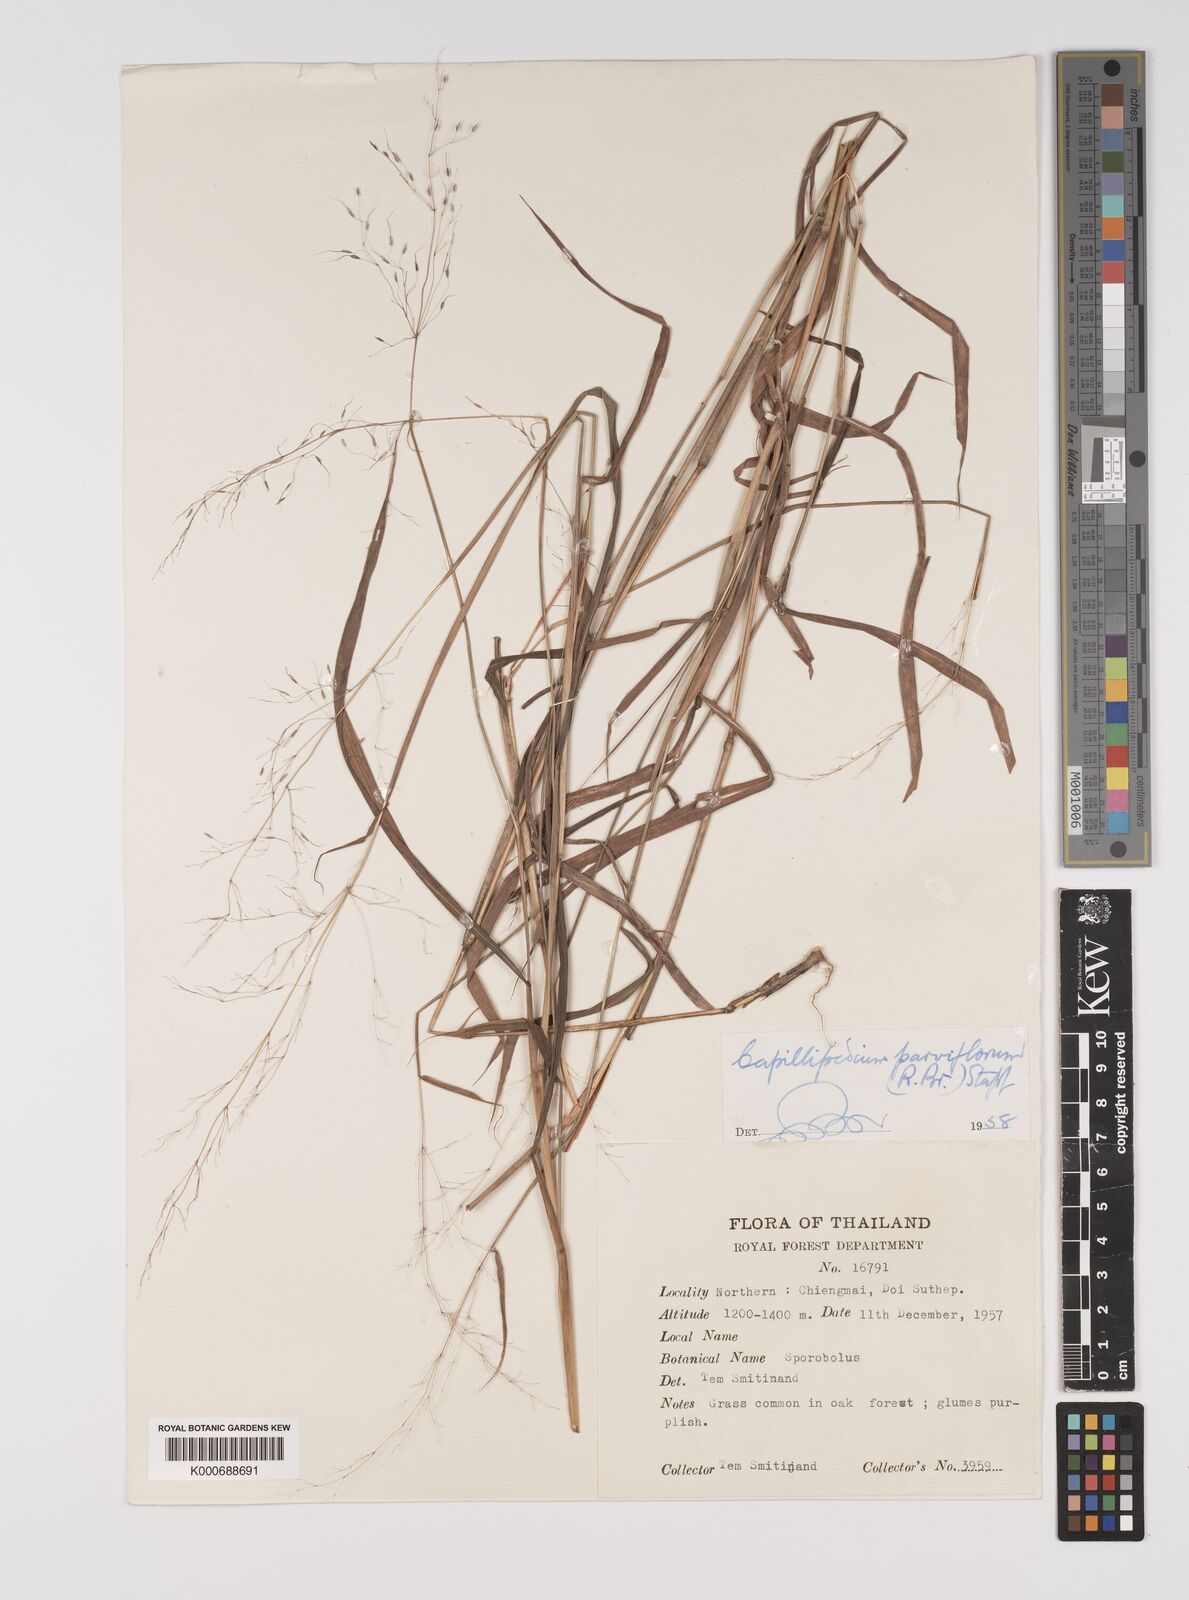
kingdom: Plantae
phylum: Tracheophyta
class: Liliopsida
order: Poales
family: Poaceae
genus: Capillipedium
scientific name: Capillipedium parviflorum
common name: Golden-beard
